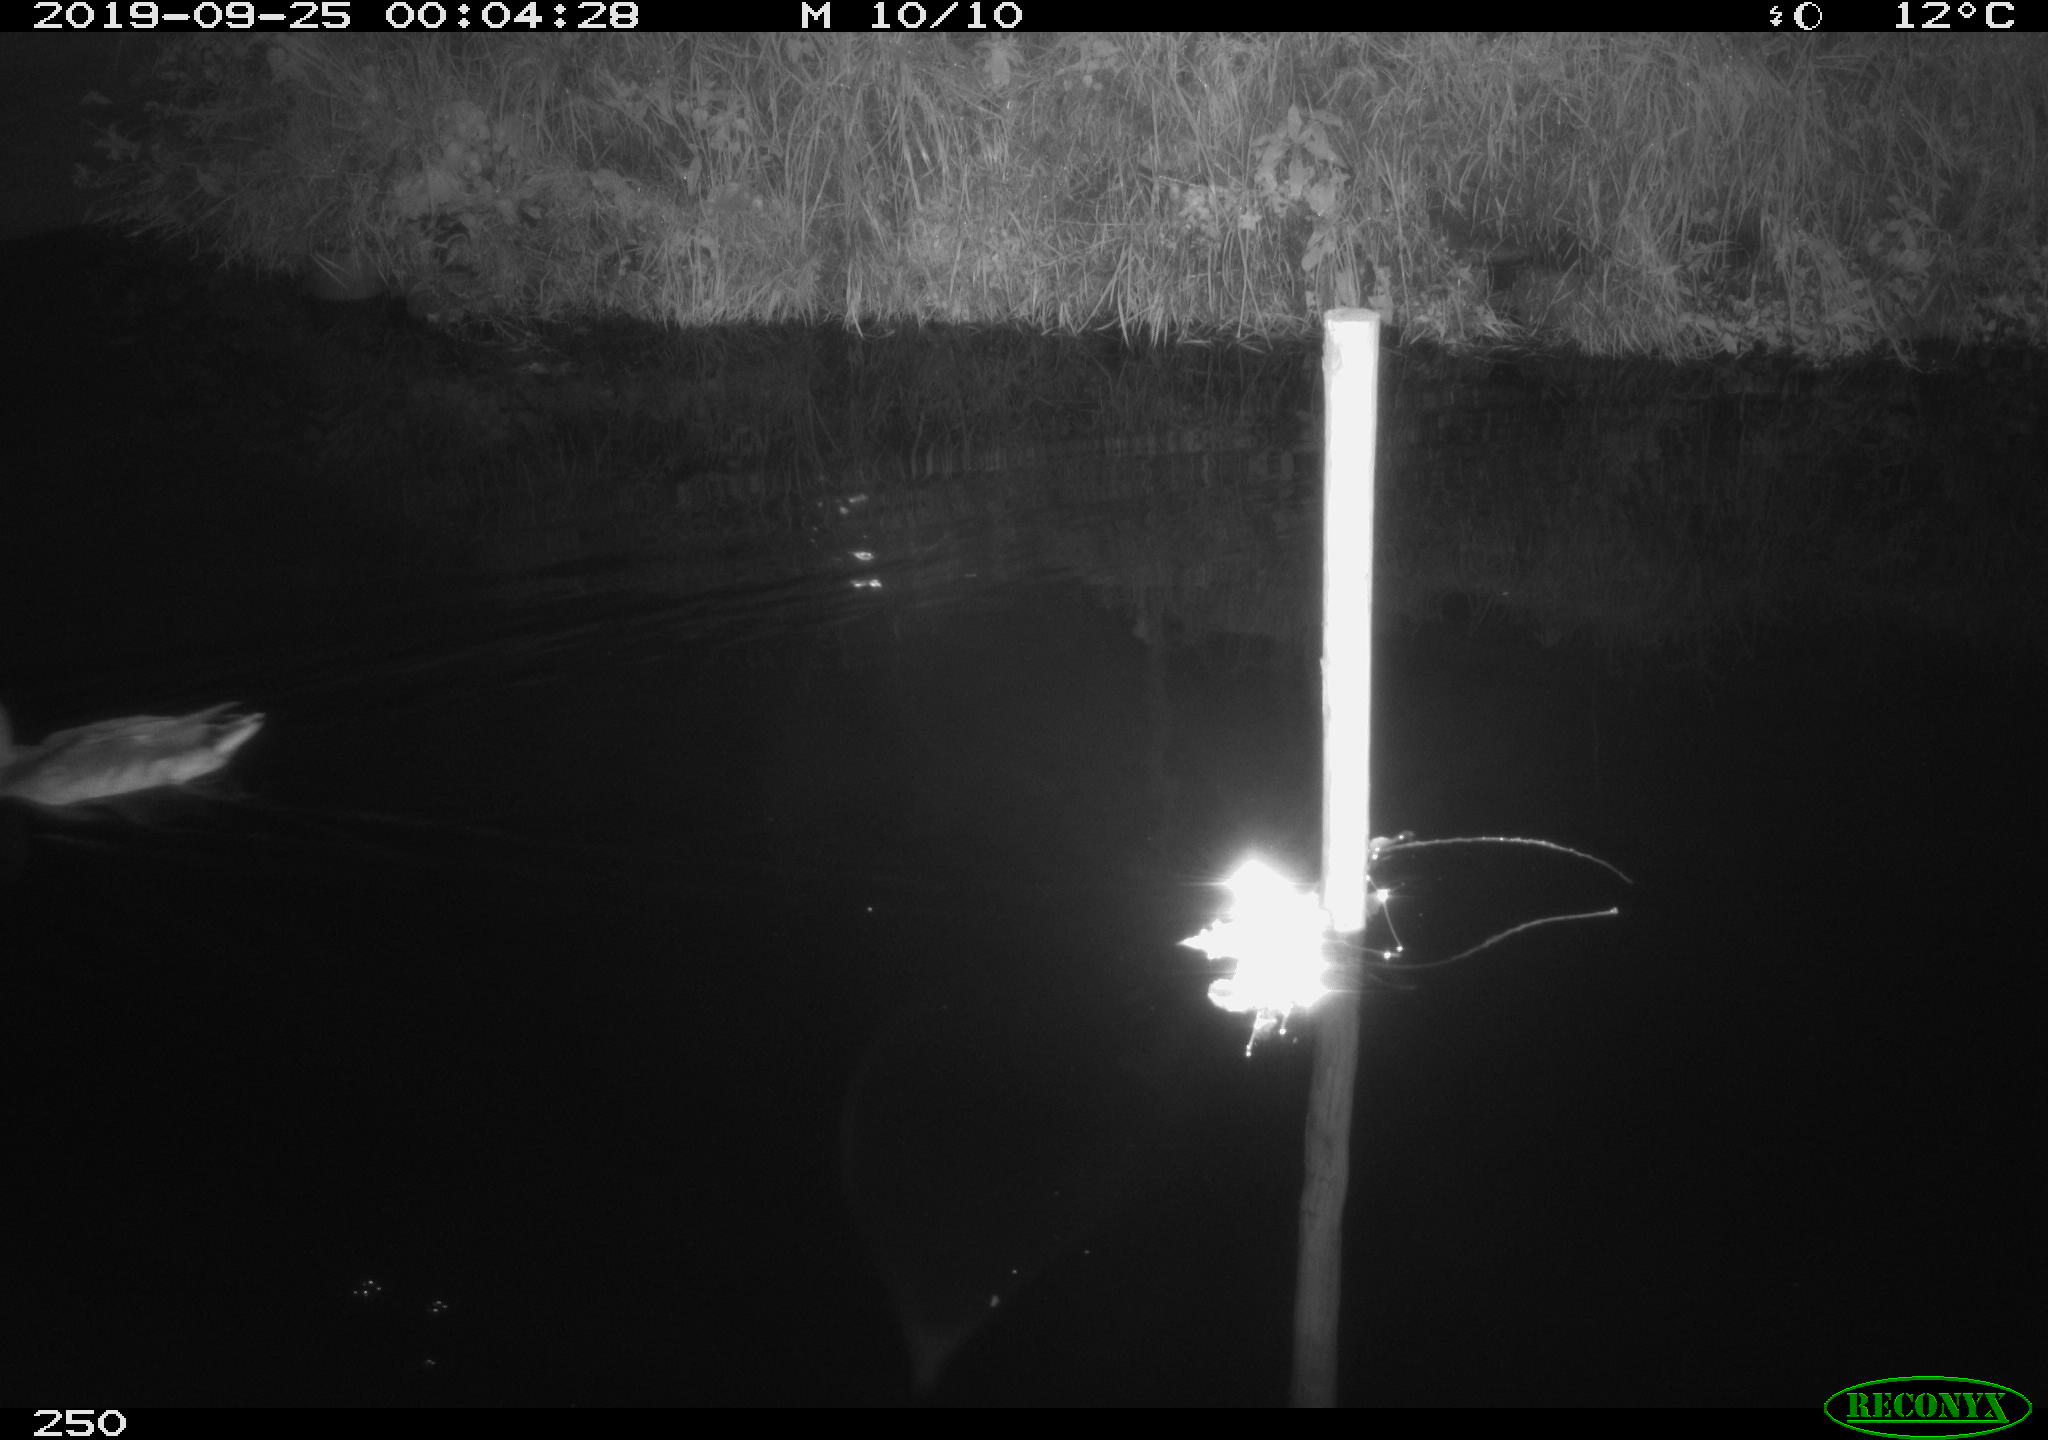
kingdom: Animalia
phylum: Chordata
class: Aves
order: Anseriformes
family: Anatidae
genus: Anas
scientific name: Anas platyrhynchos
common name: Mallard
